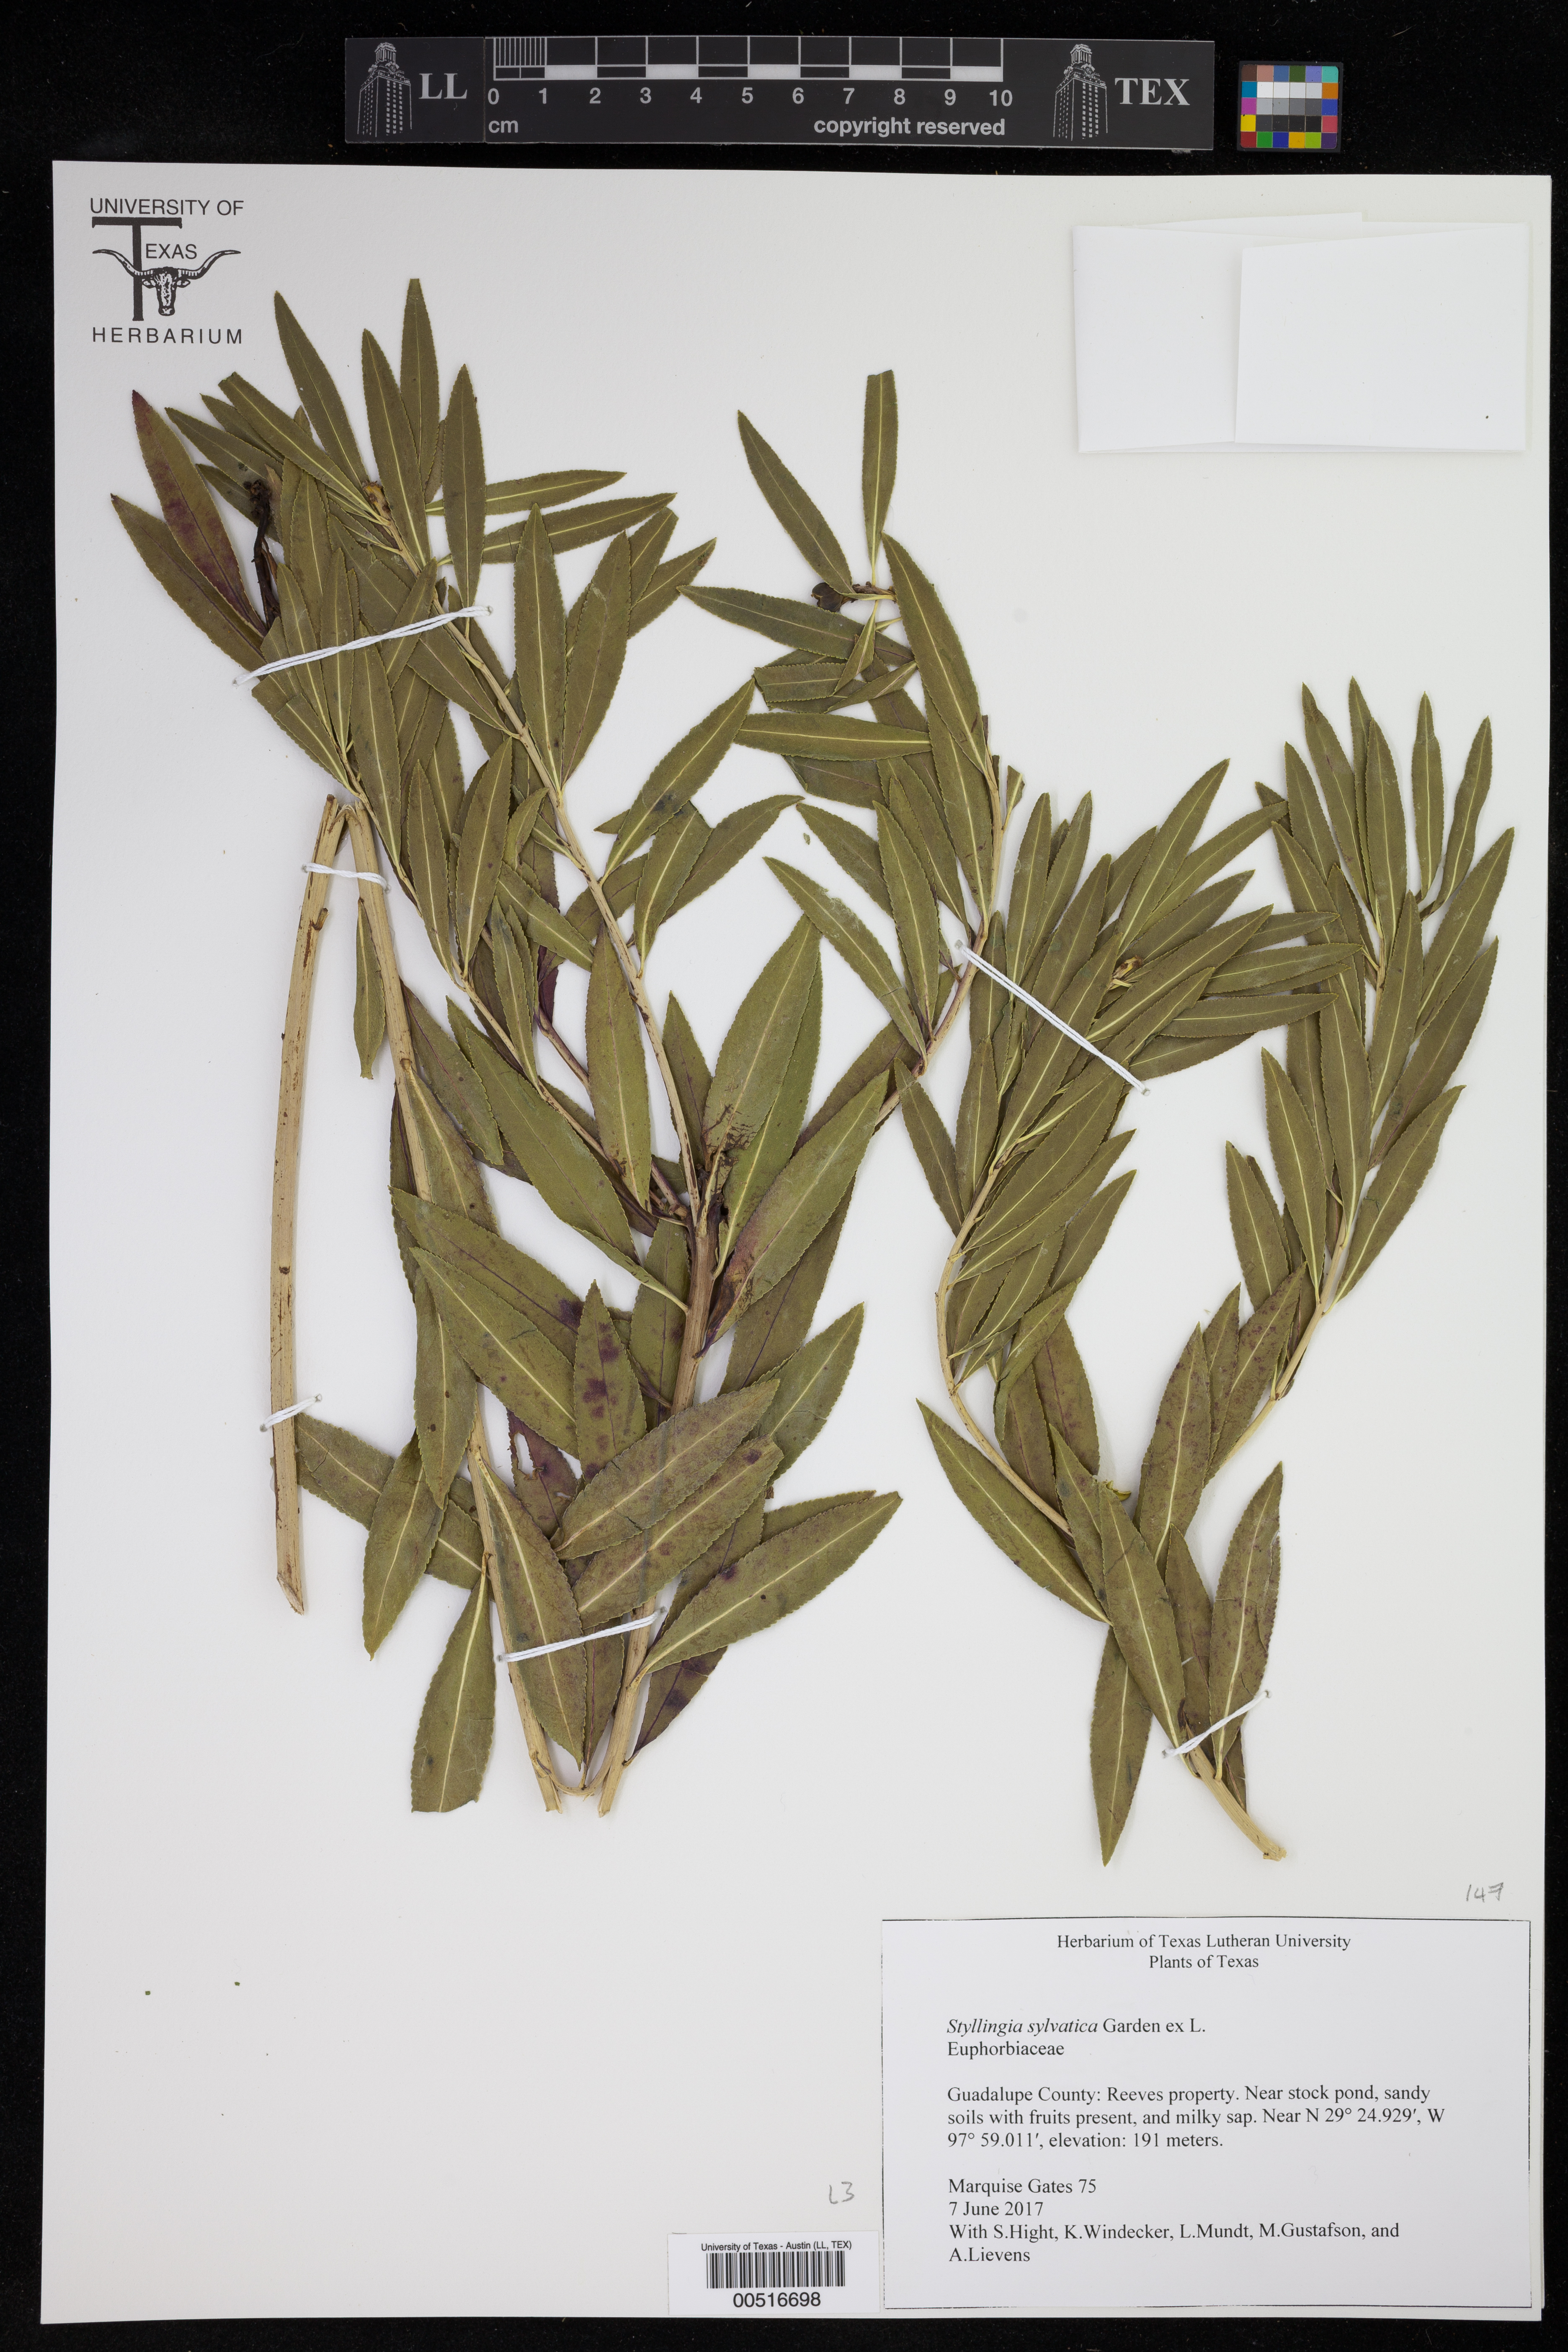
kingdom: Plantae
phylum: Tracheophyta
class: Magnoliopsida
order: Malpighiales
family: Euphorbiaceae
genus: Stillingia
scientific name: Stillingia sylvatica
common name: Queen's-delight
